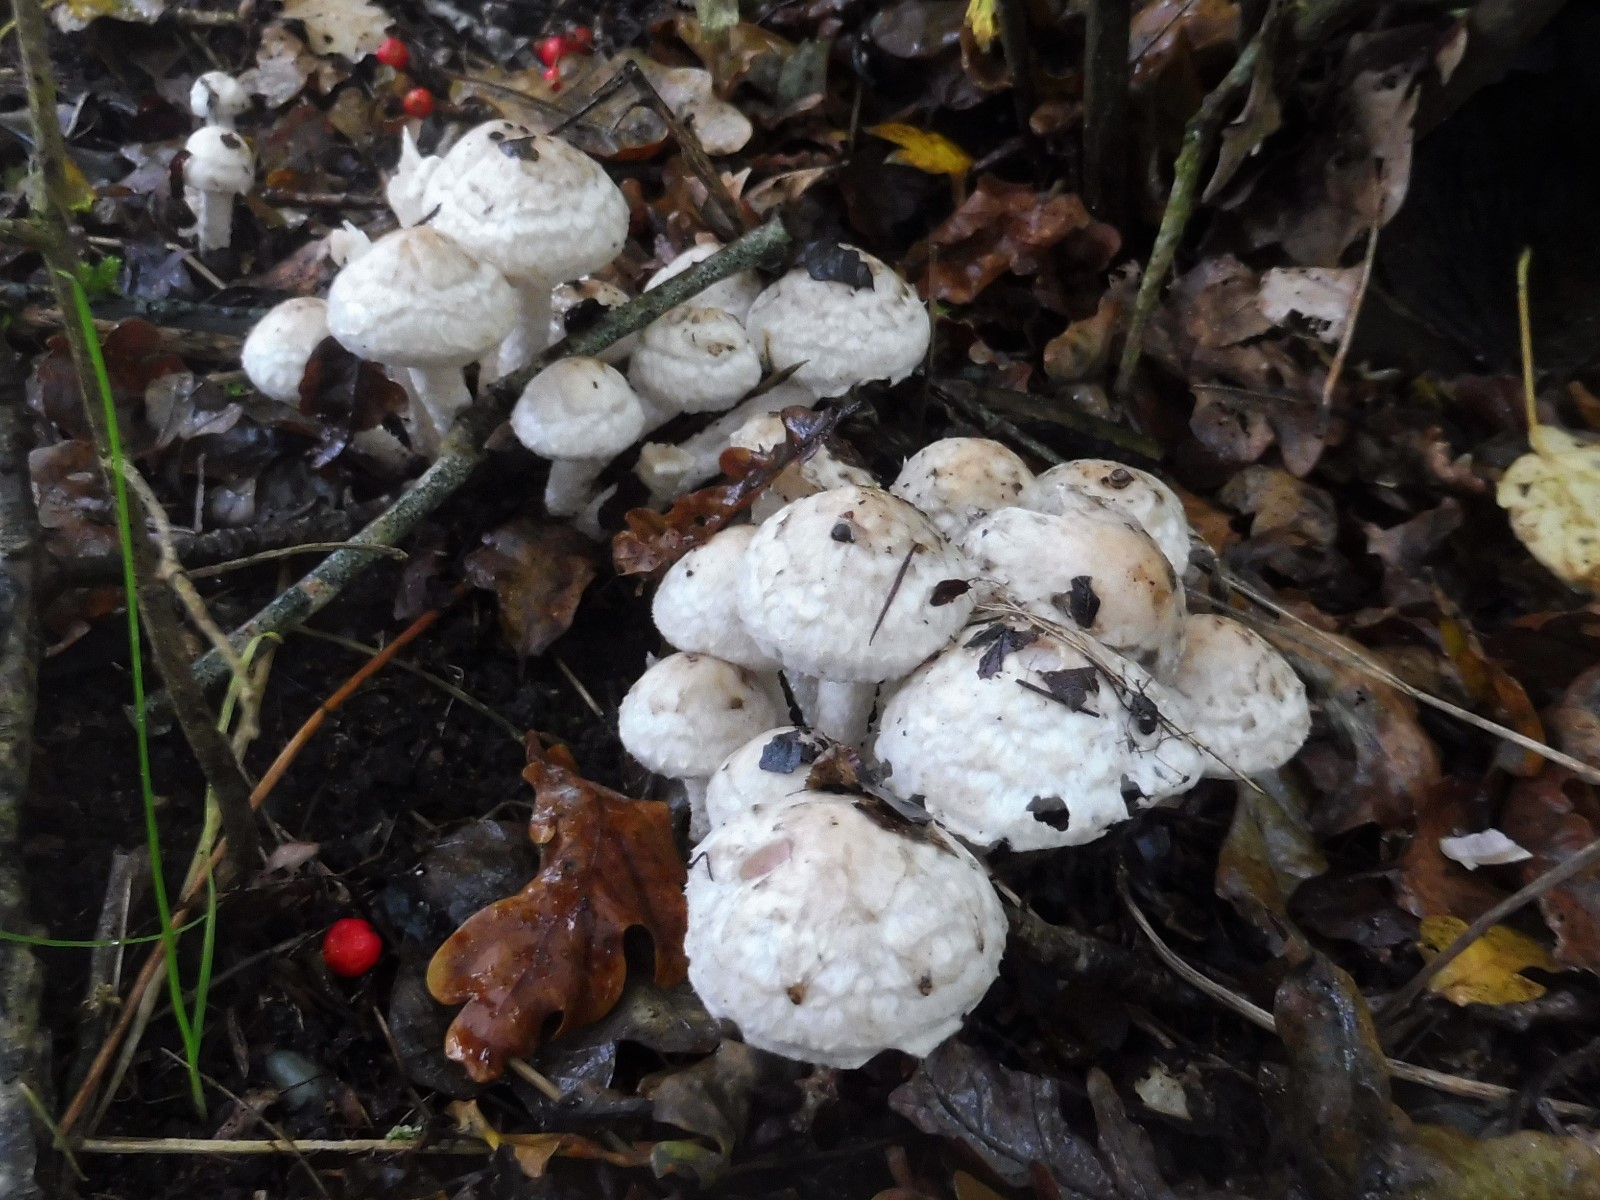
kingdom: Fungi
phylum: Basidiomycota
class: Agaricomycetes
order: Agaricales
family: Psathyrellaceae
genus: Psathyrella
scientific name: Psathyrella cotonea
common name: skællet mørkhat
